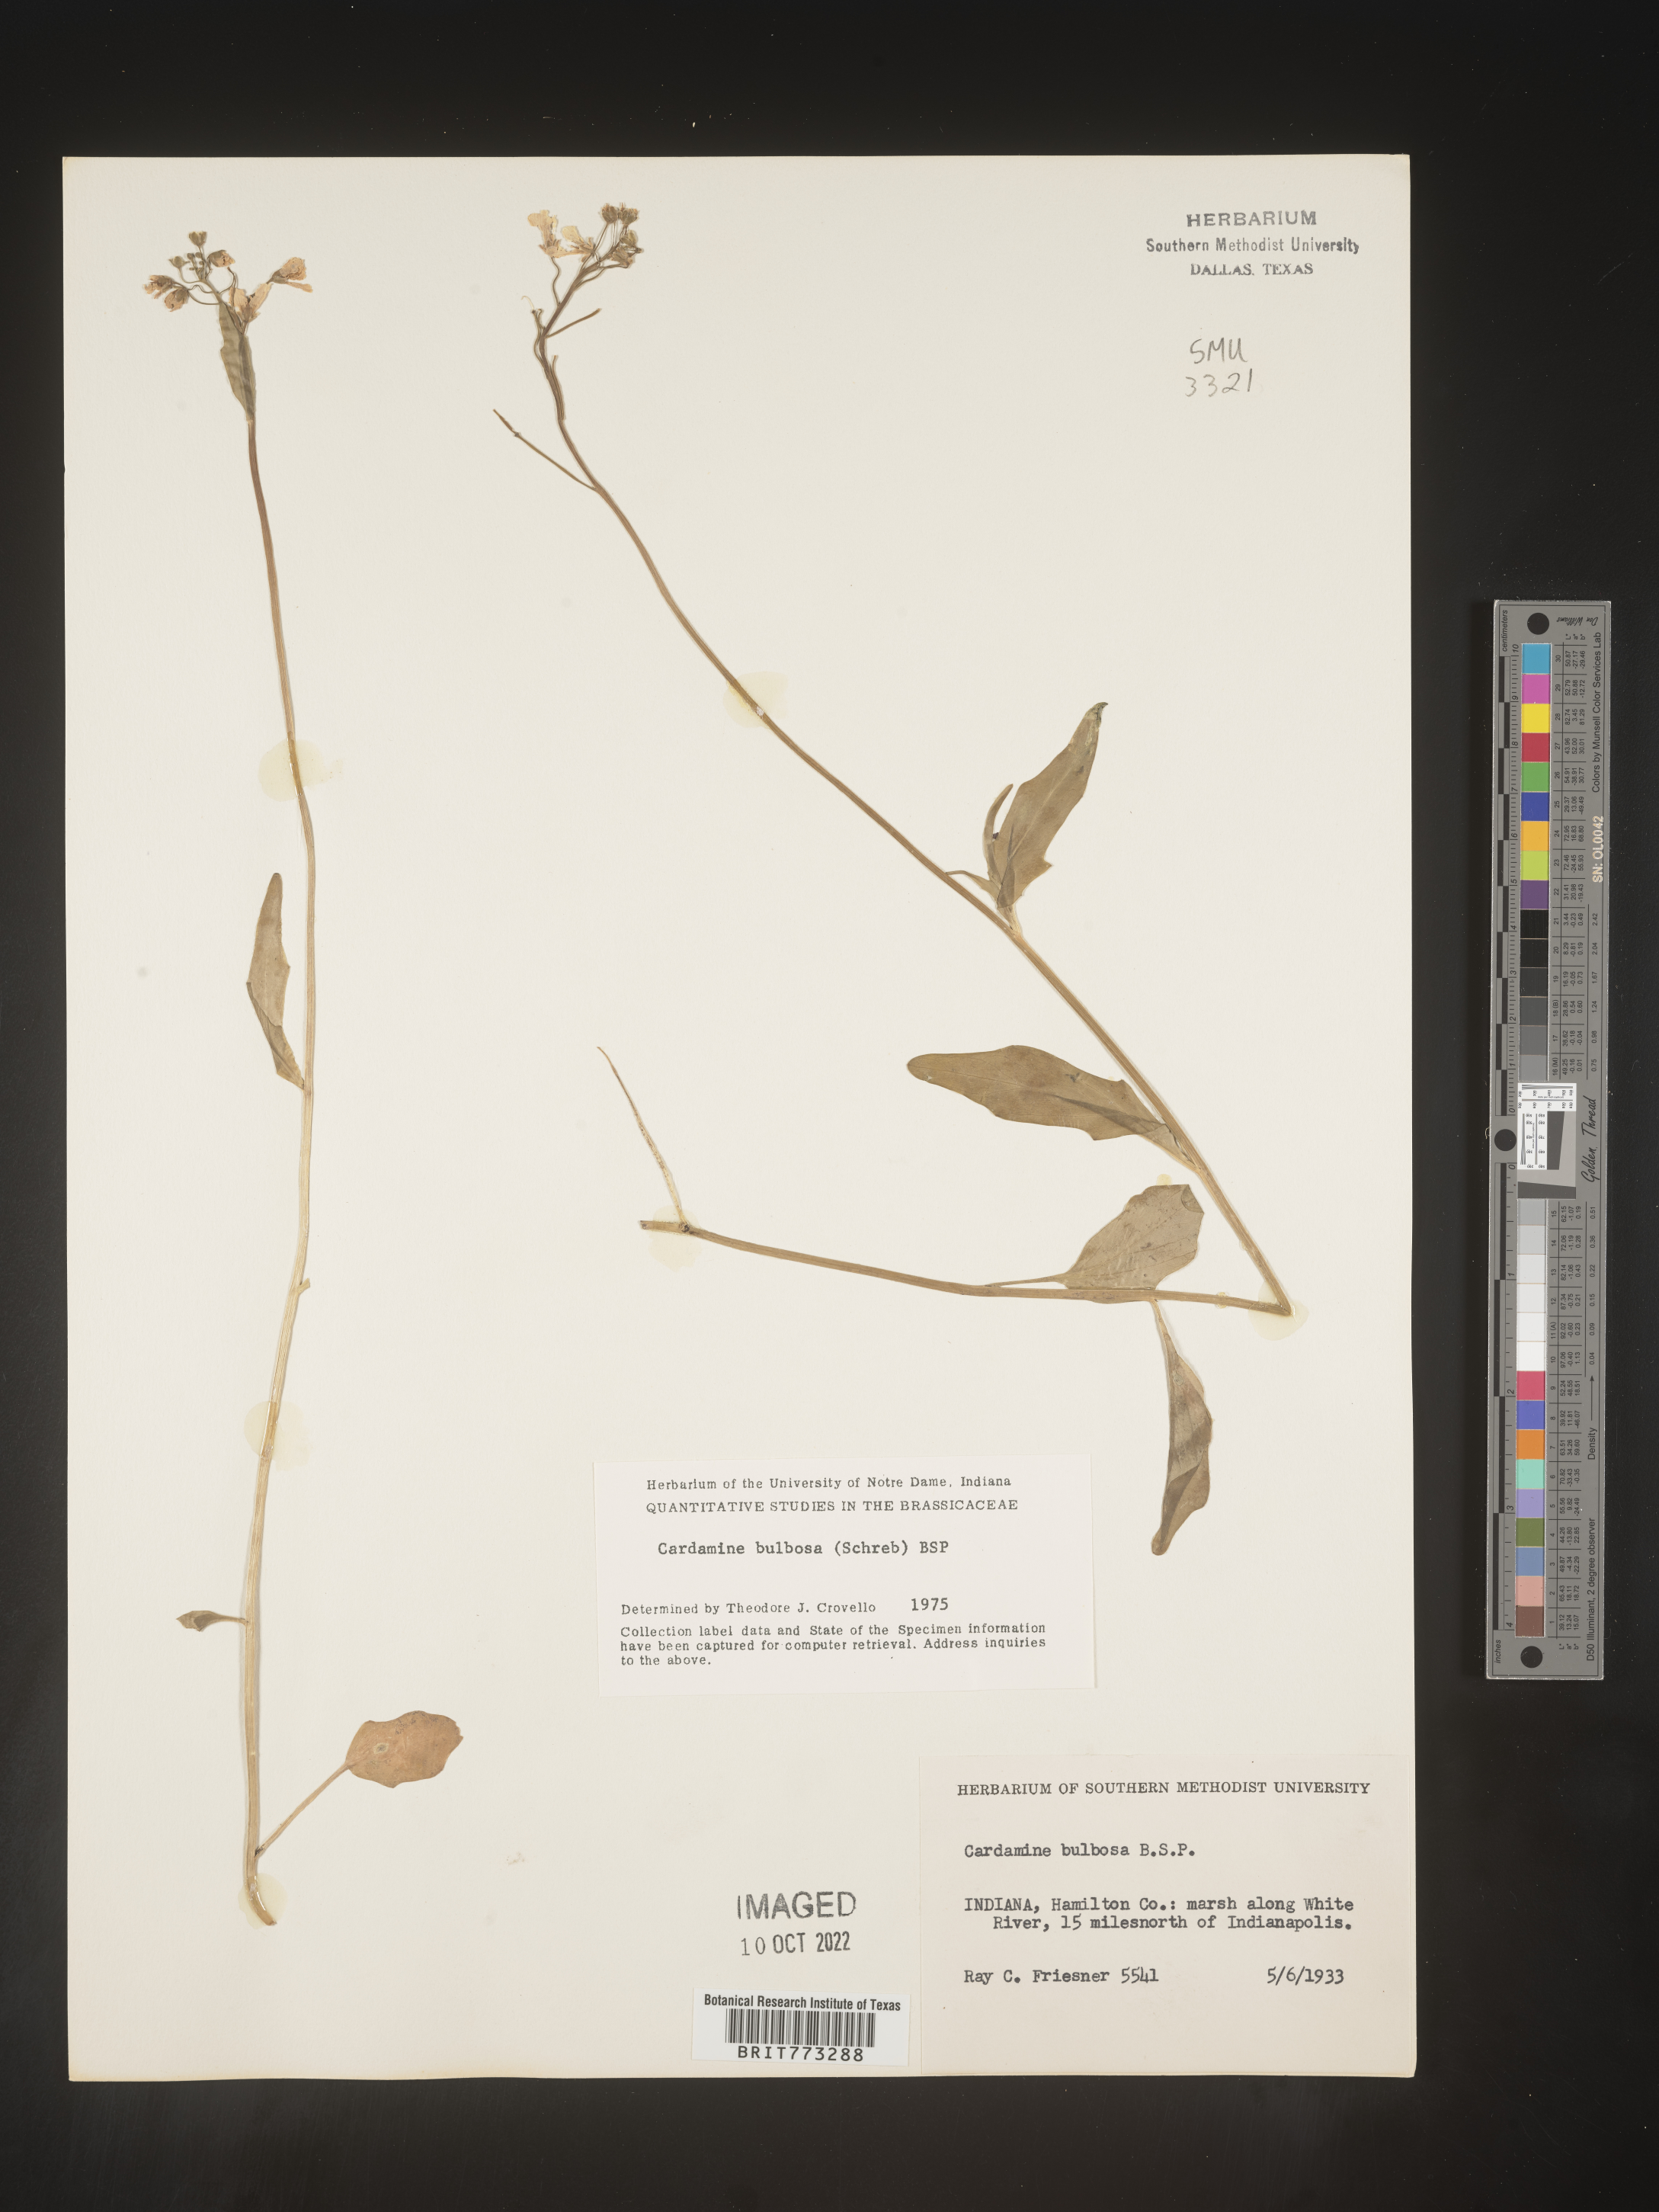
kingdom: Plantae
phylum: Tracheophyta
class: Magnoliopsida
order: Brassicales
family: Brassicaceae
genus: Cardamine
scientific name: Cardamine bulbosa
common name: Spring cress
